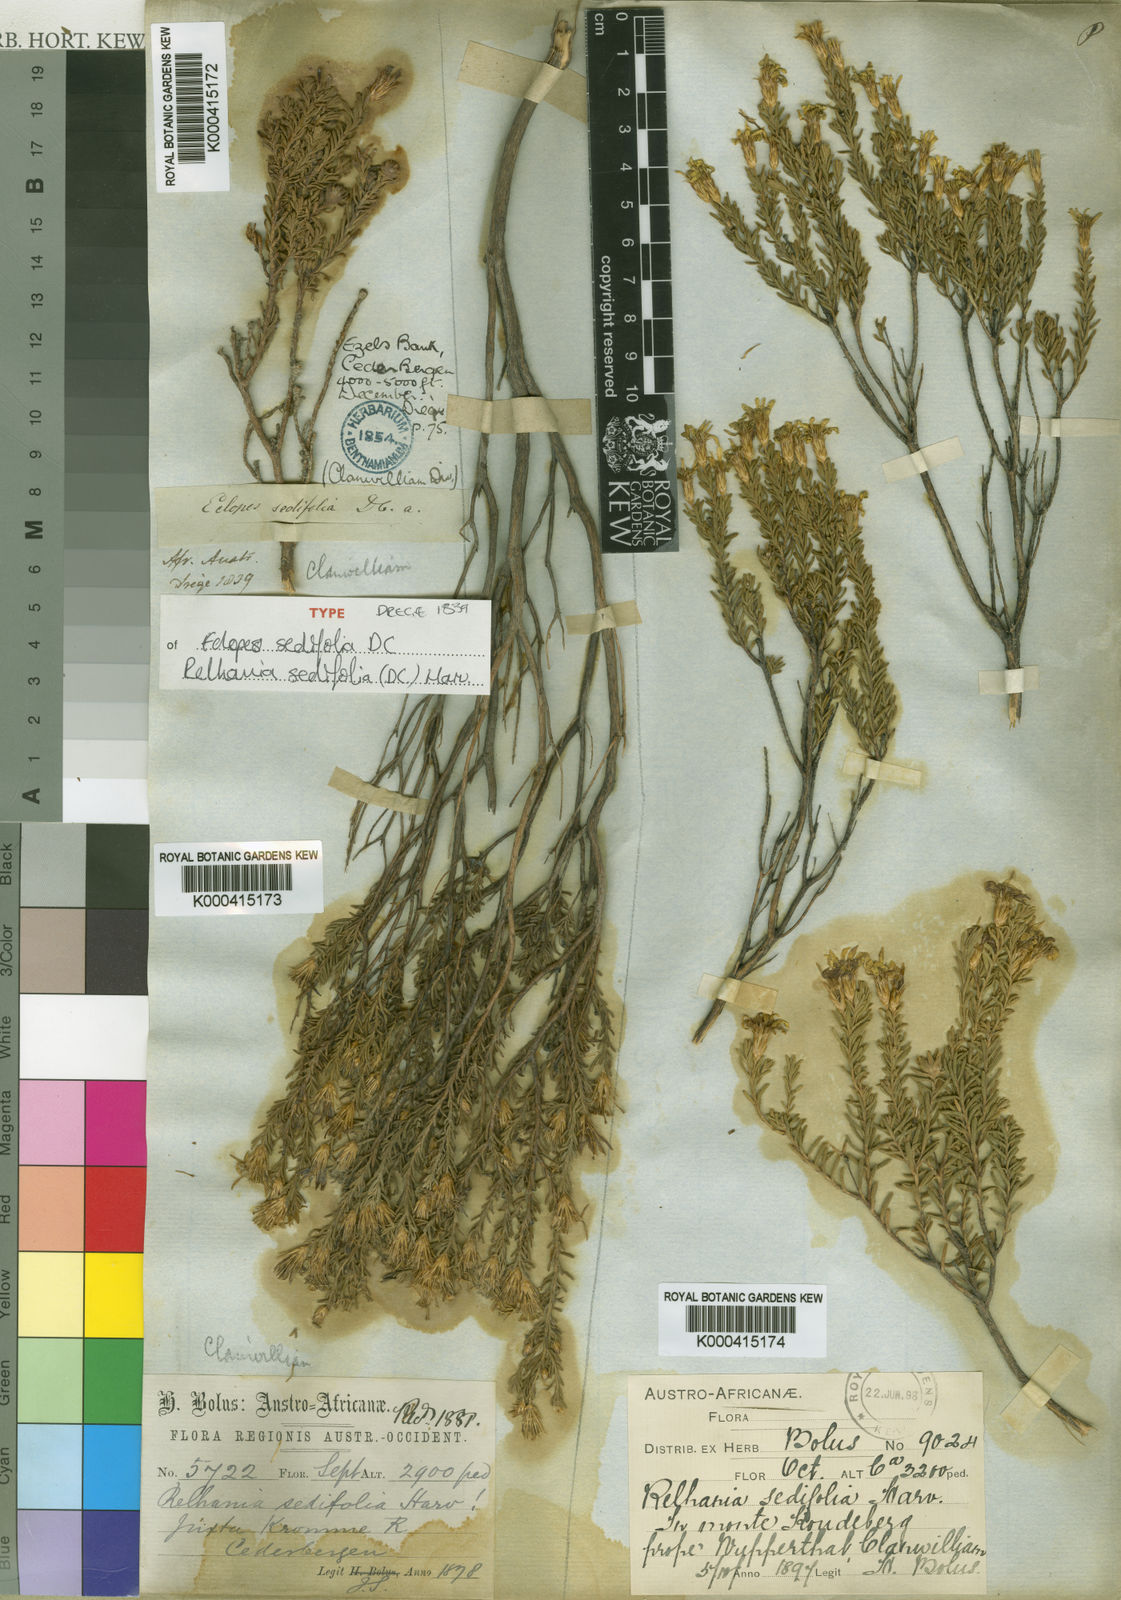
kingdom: Plantae
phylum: Tracheophyta
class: Magnoliopsida
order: Asterales
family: Asteraceae
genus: Oedera
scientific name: Oedera sedifolia
